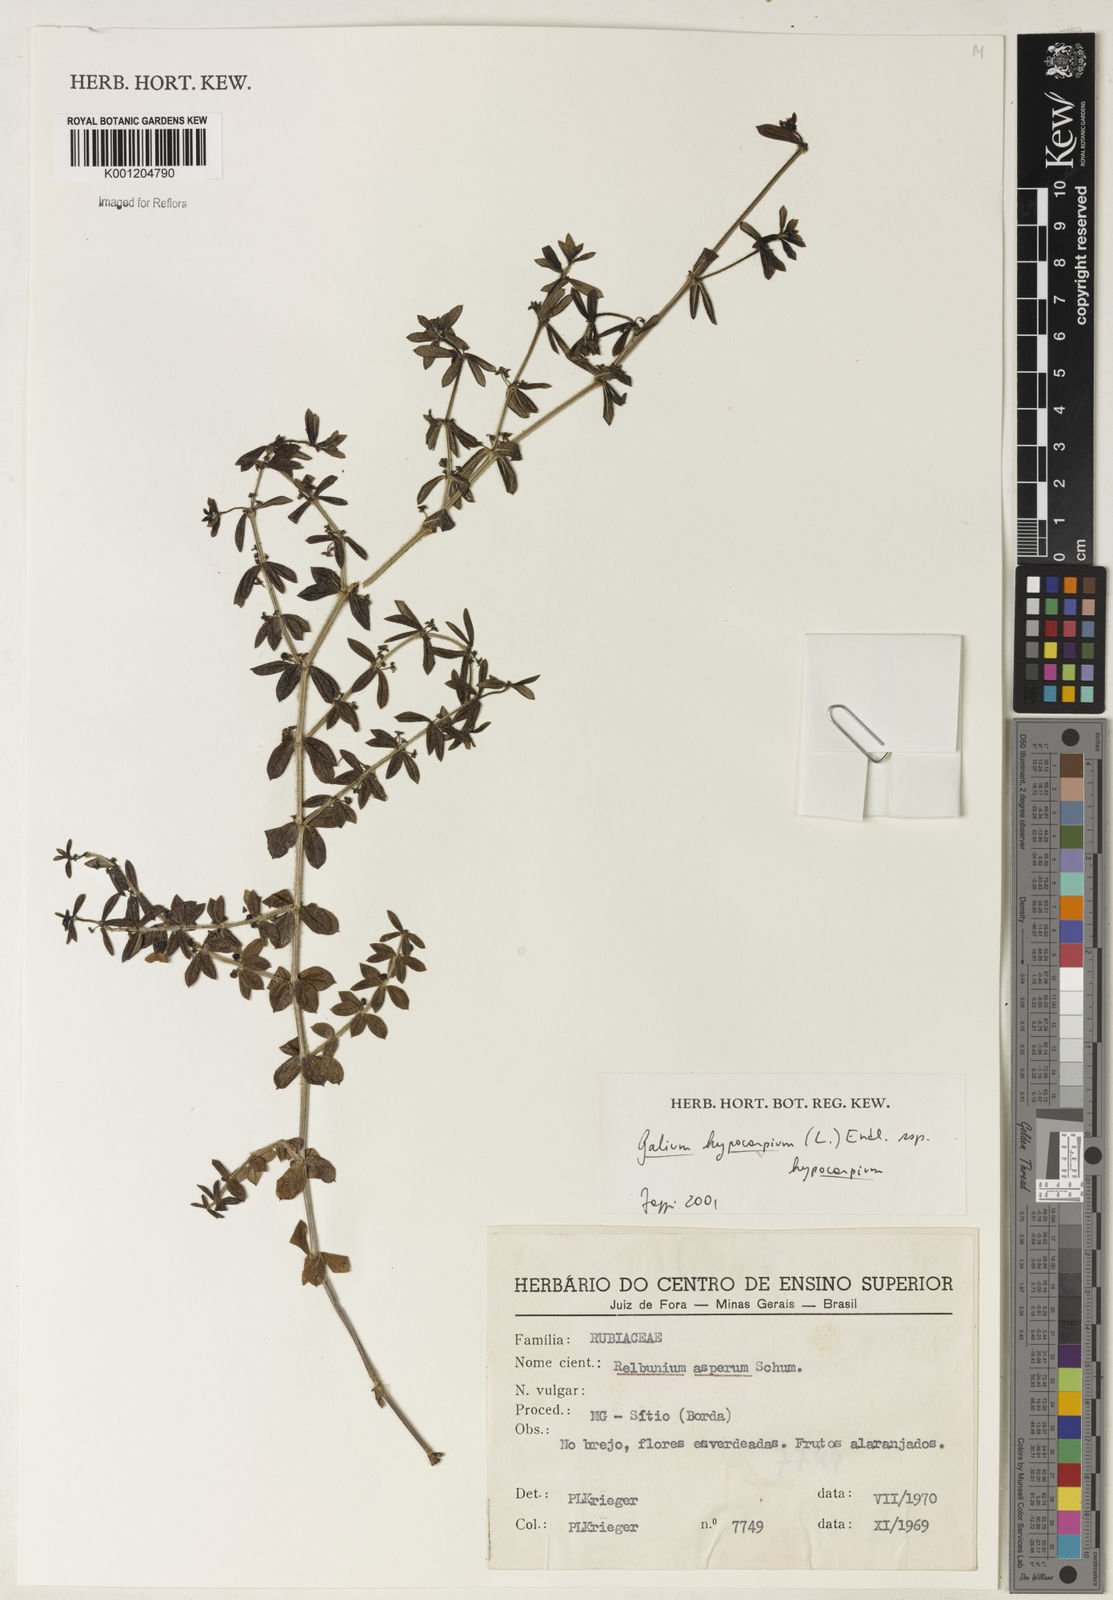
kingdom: Plantae
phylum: Tracheophyta
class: Magnoliopsida
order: Gentianales
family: Rubiaceae
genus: Galium
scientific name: Galium hypocarpium
